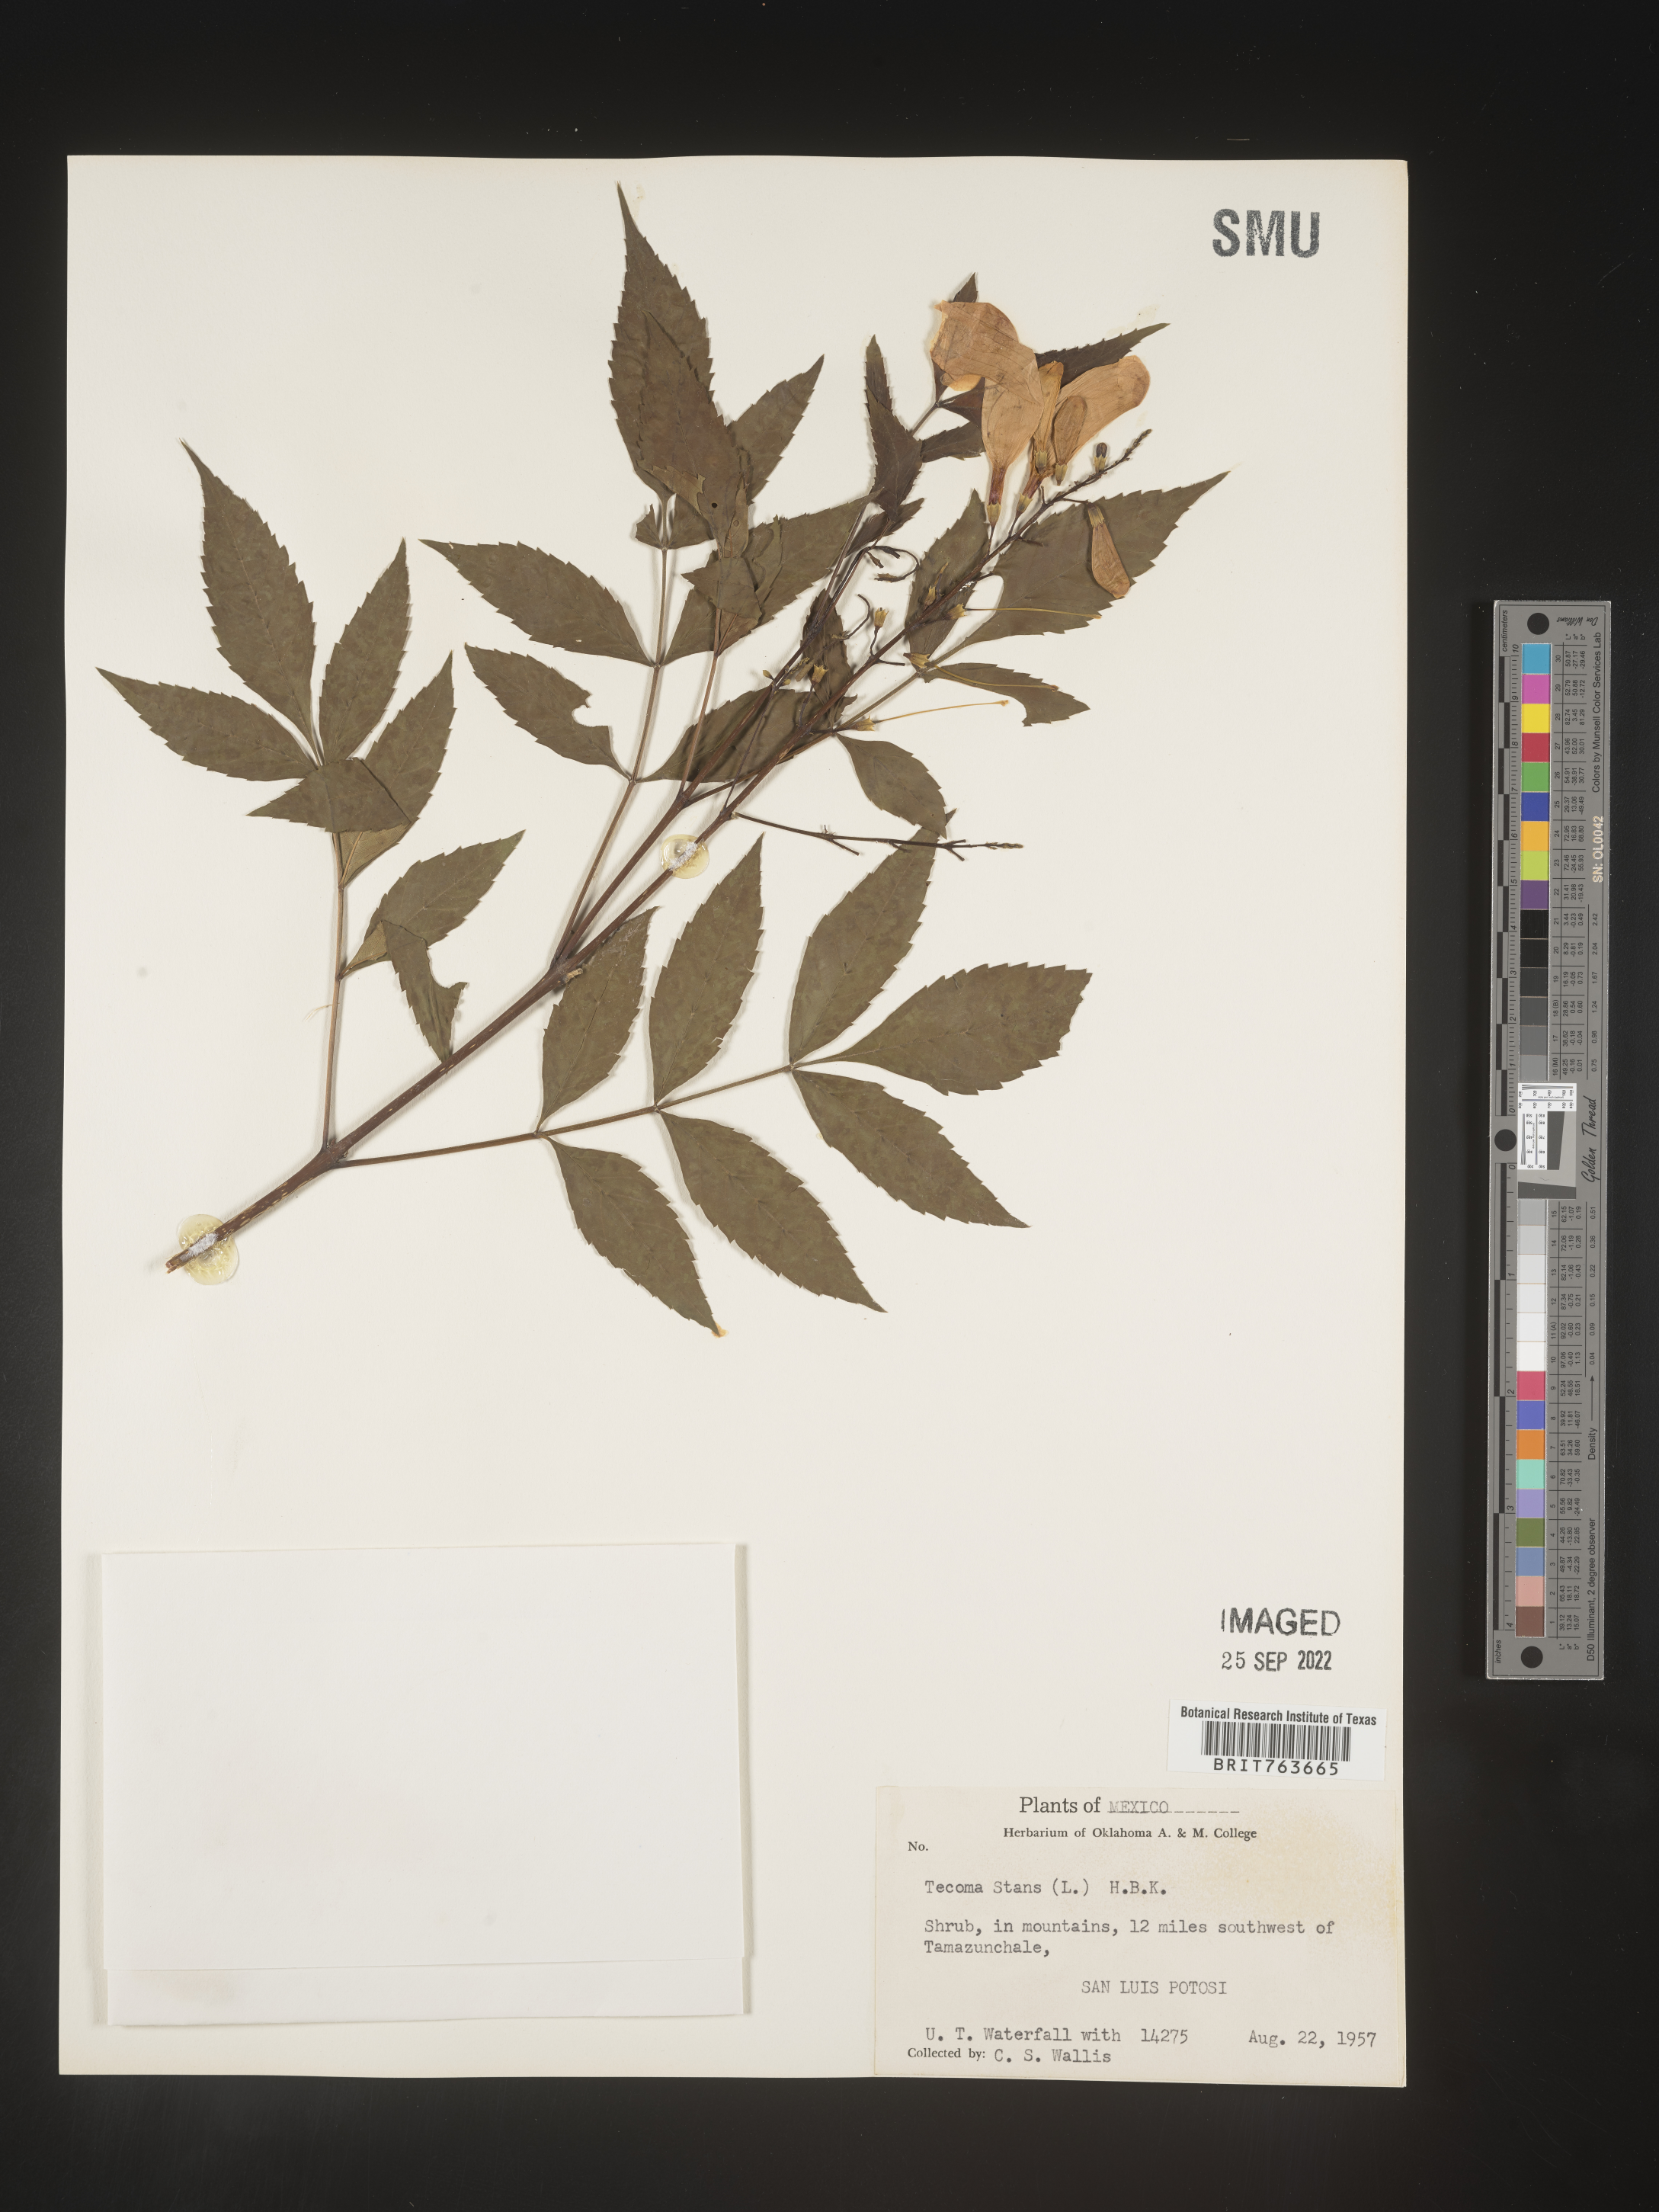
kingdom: Plantae
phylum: Tracheophyta
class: Magnoliopsida
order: Lamiales
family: Bignoniaceae
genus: Tecoma
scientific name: Tecoma
